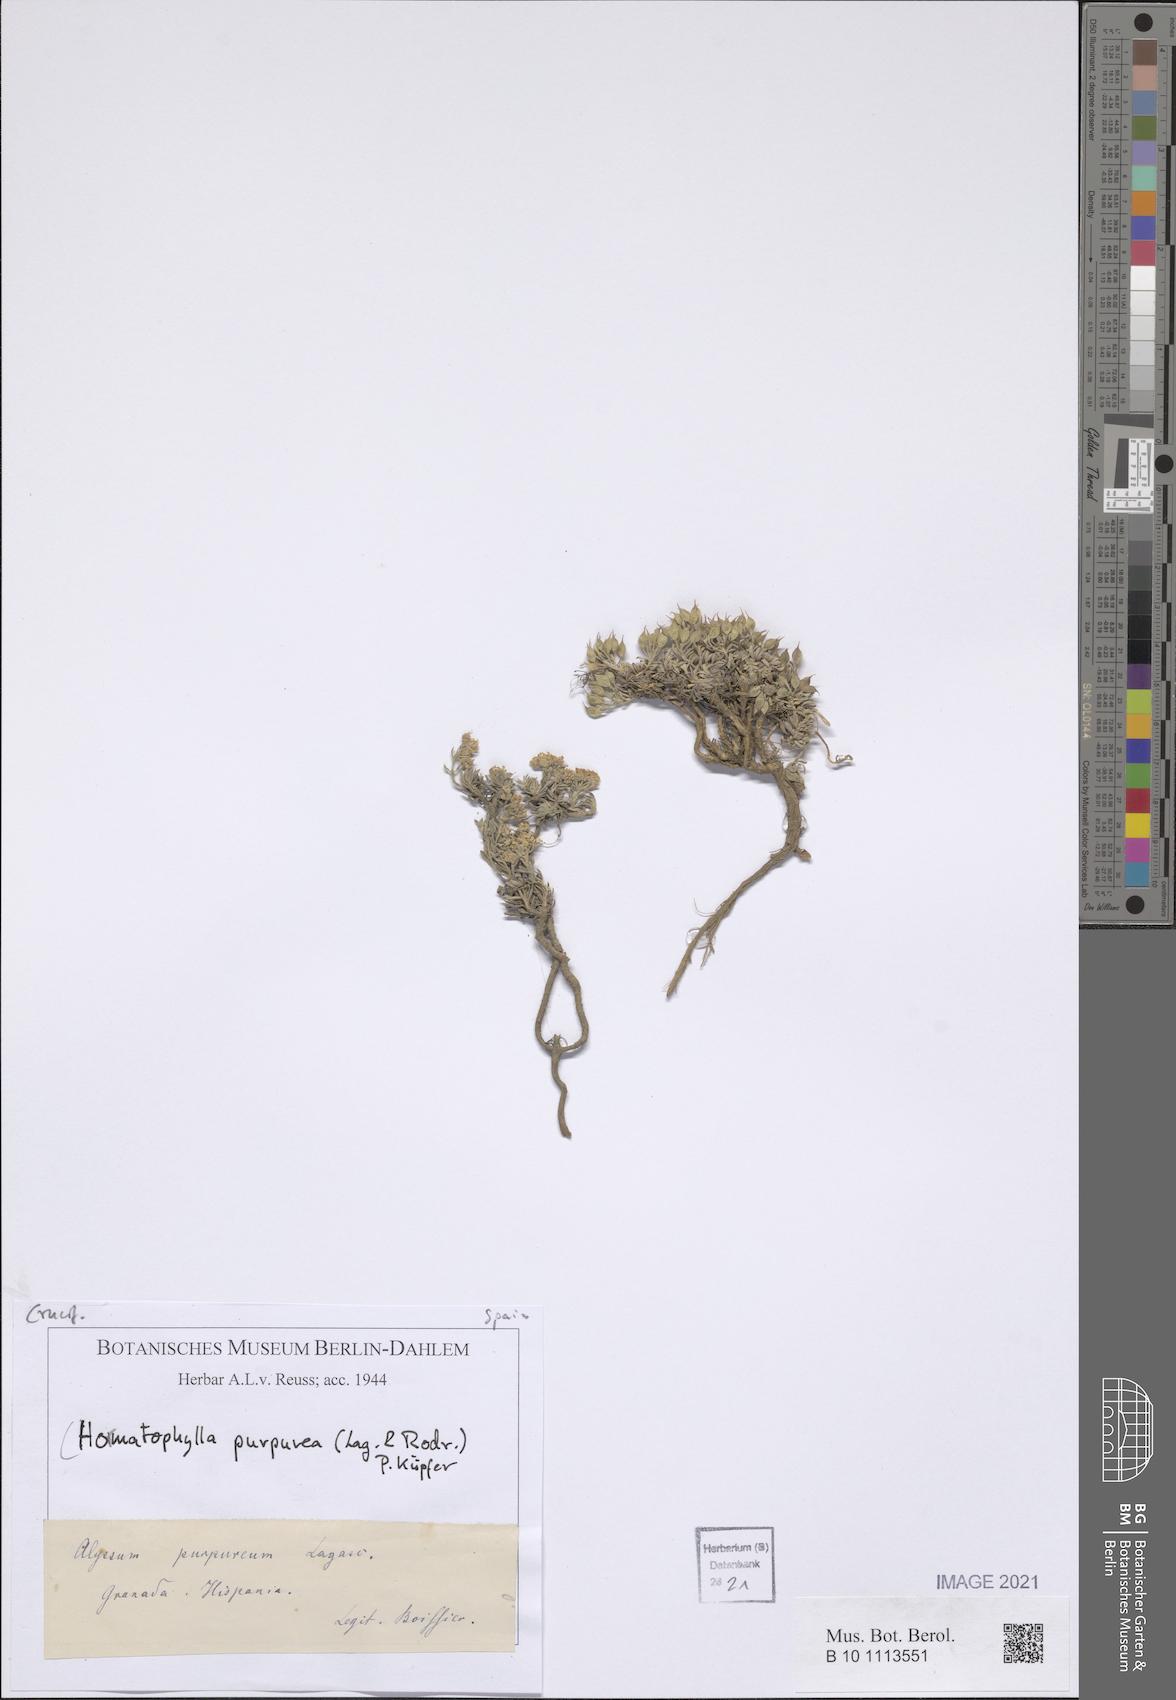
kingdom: Plantae
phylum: Tracheophyta
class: Magnoliopsida
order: Brassicales
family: Brassicaceae
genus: Hormathophylla
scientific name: Hormathophylla purpurea
